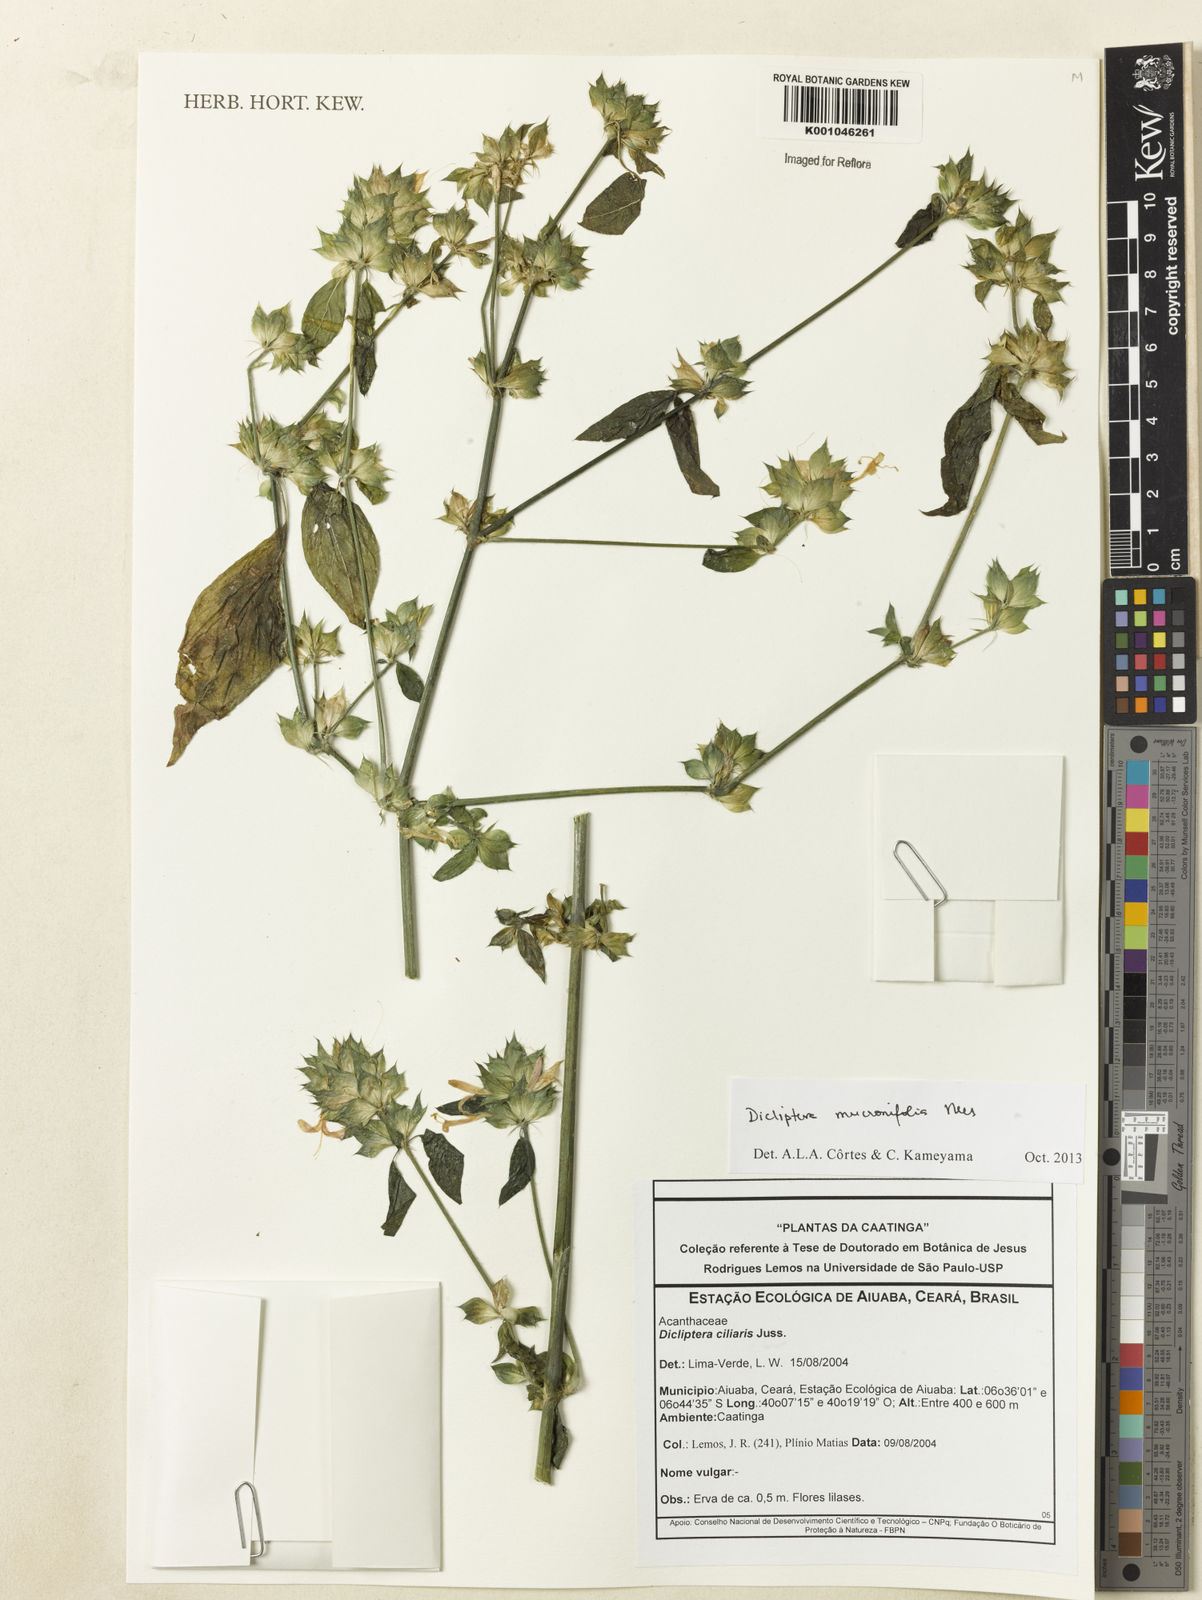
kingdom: Plantae
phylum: Tracheophyta
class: Magnoliopsida
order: Lamiales
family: Acanthaceae
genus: Dicliptera
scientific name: Dicliptera mucronifolia
